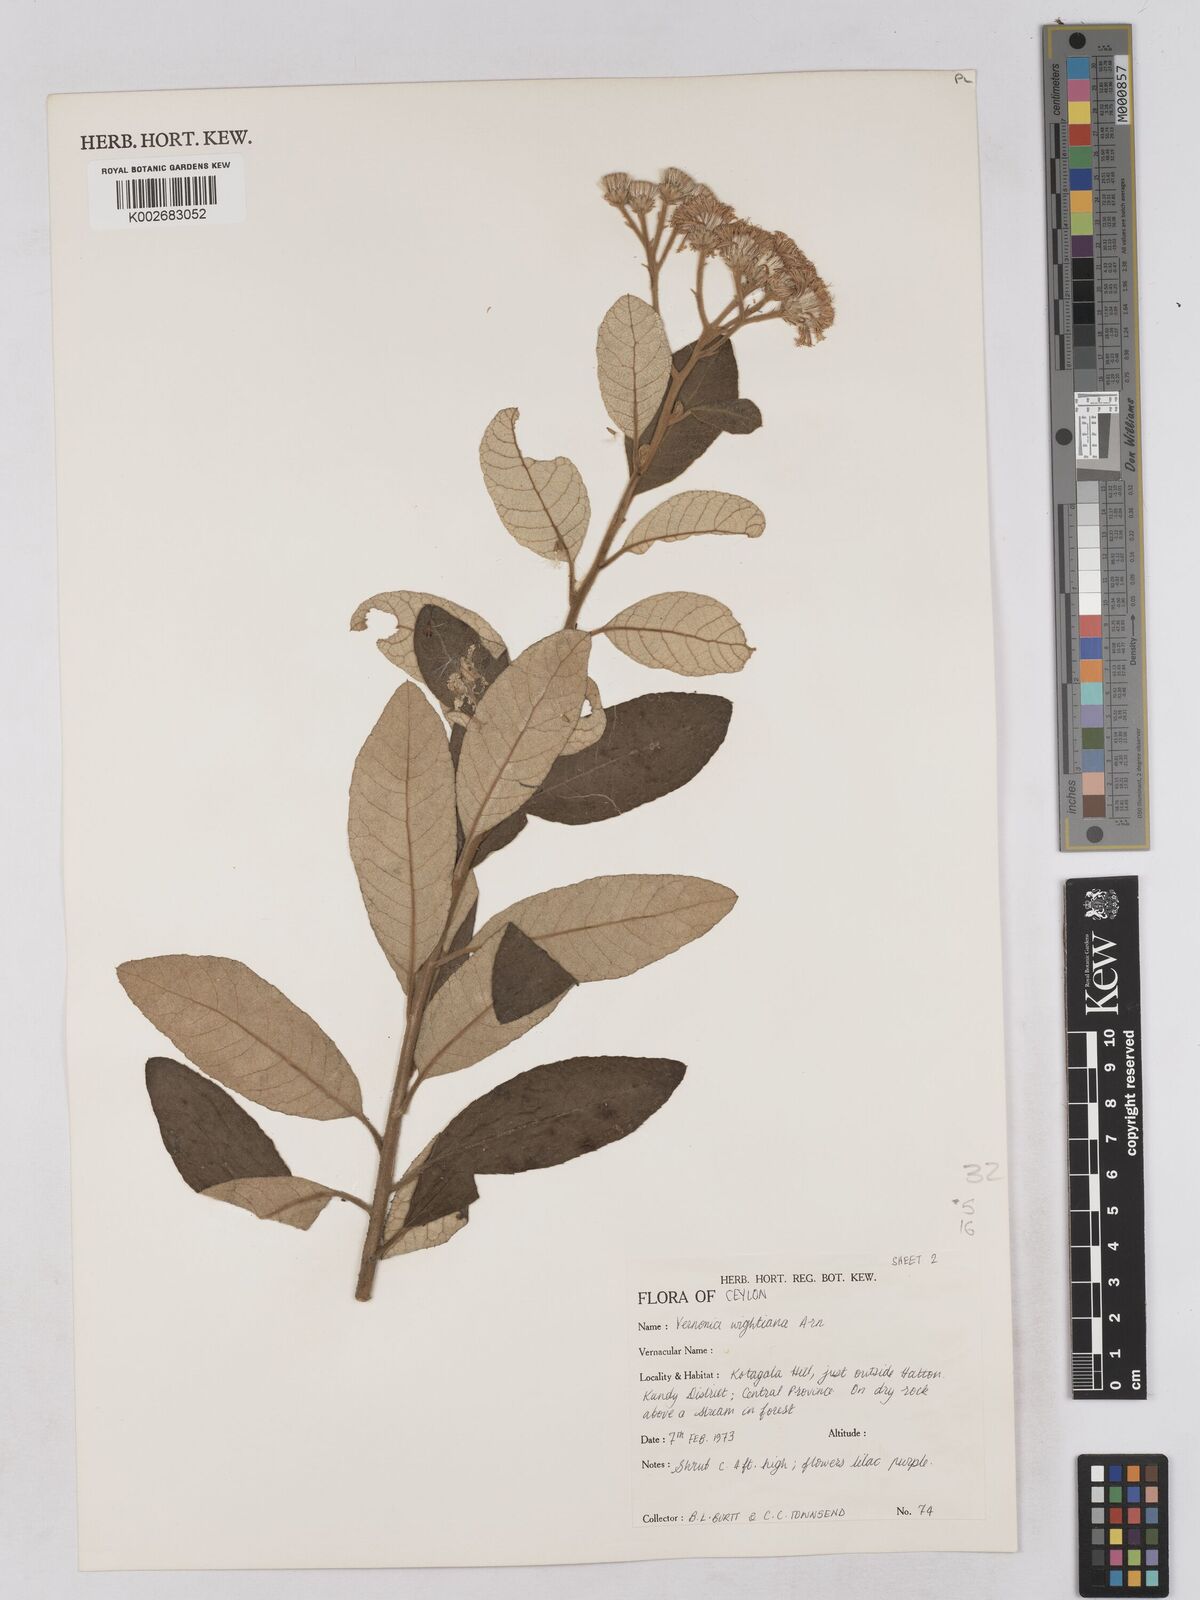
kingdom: Plantae
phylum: Tracheophyta
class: Magnoliopsida
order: Asterales
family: Asteraceae
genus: Uniyala
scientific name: Uniyala wightiana
